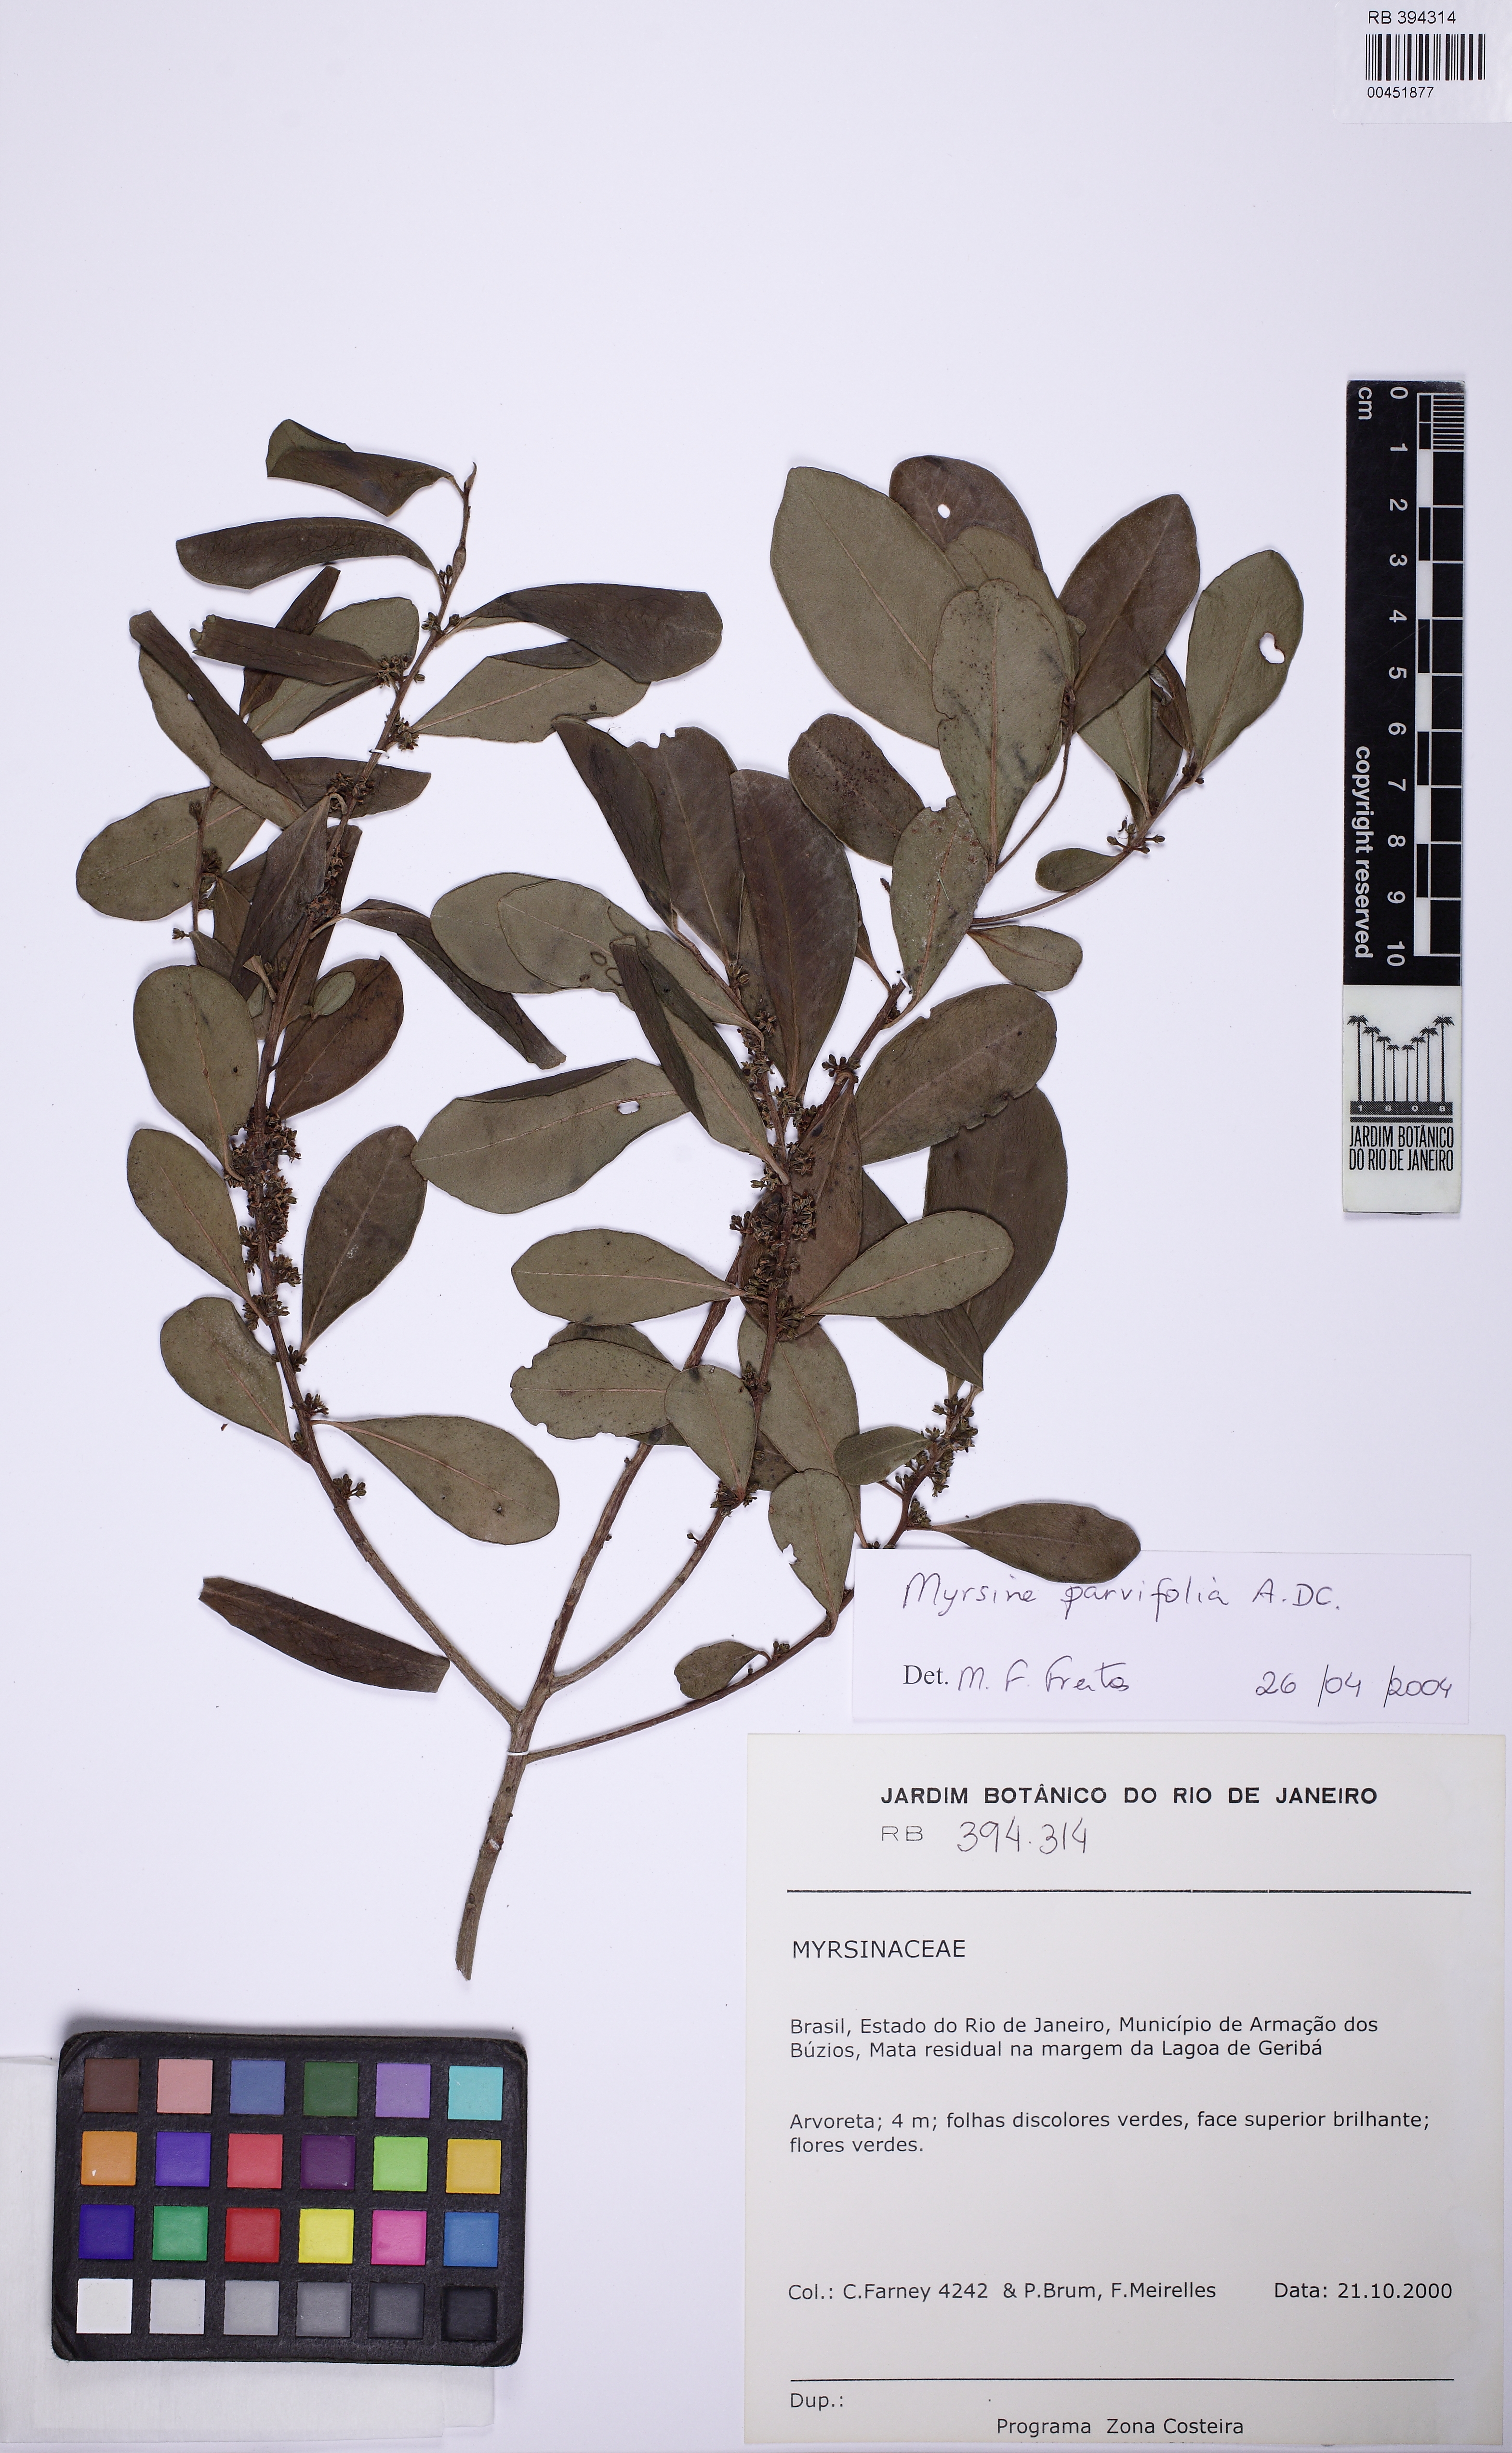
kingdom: Plantae
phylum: Tracheophyta
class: Magnoliopsida
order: Ericales
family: Primulaceae
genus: Myrsine
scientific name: Myrsine parvifolia
